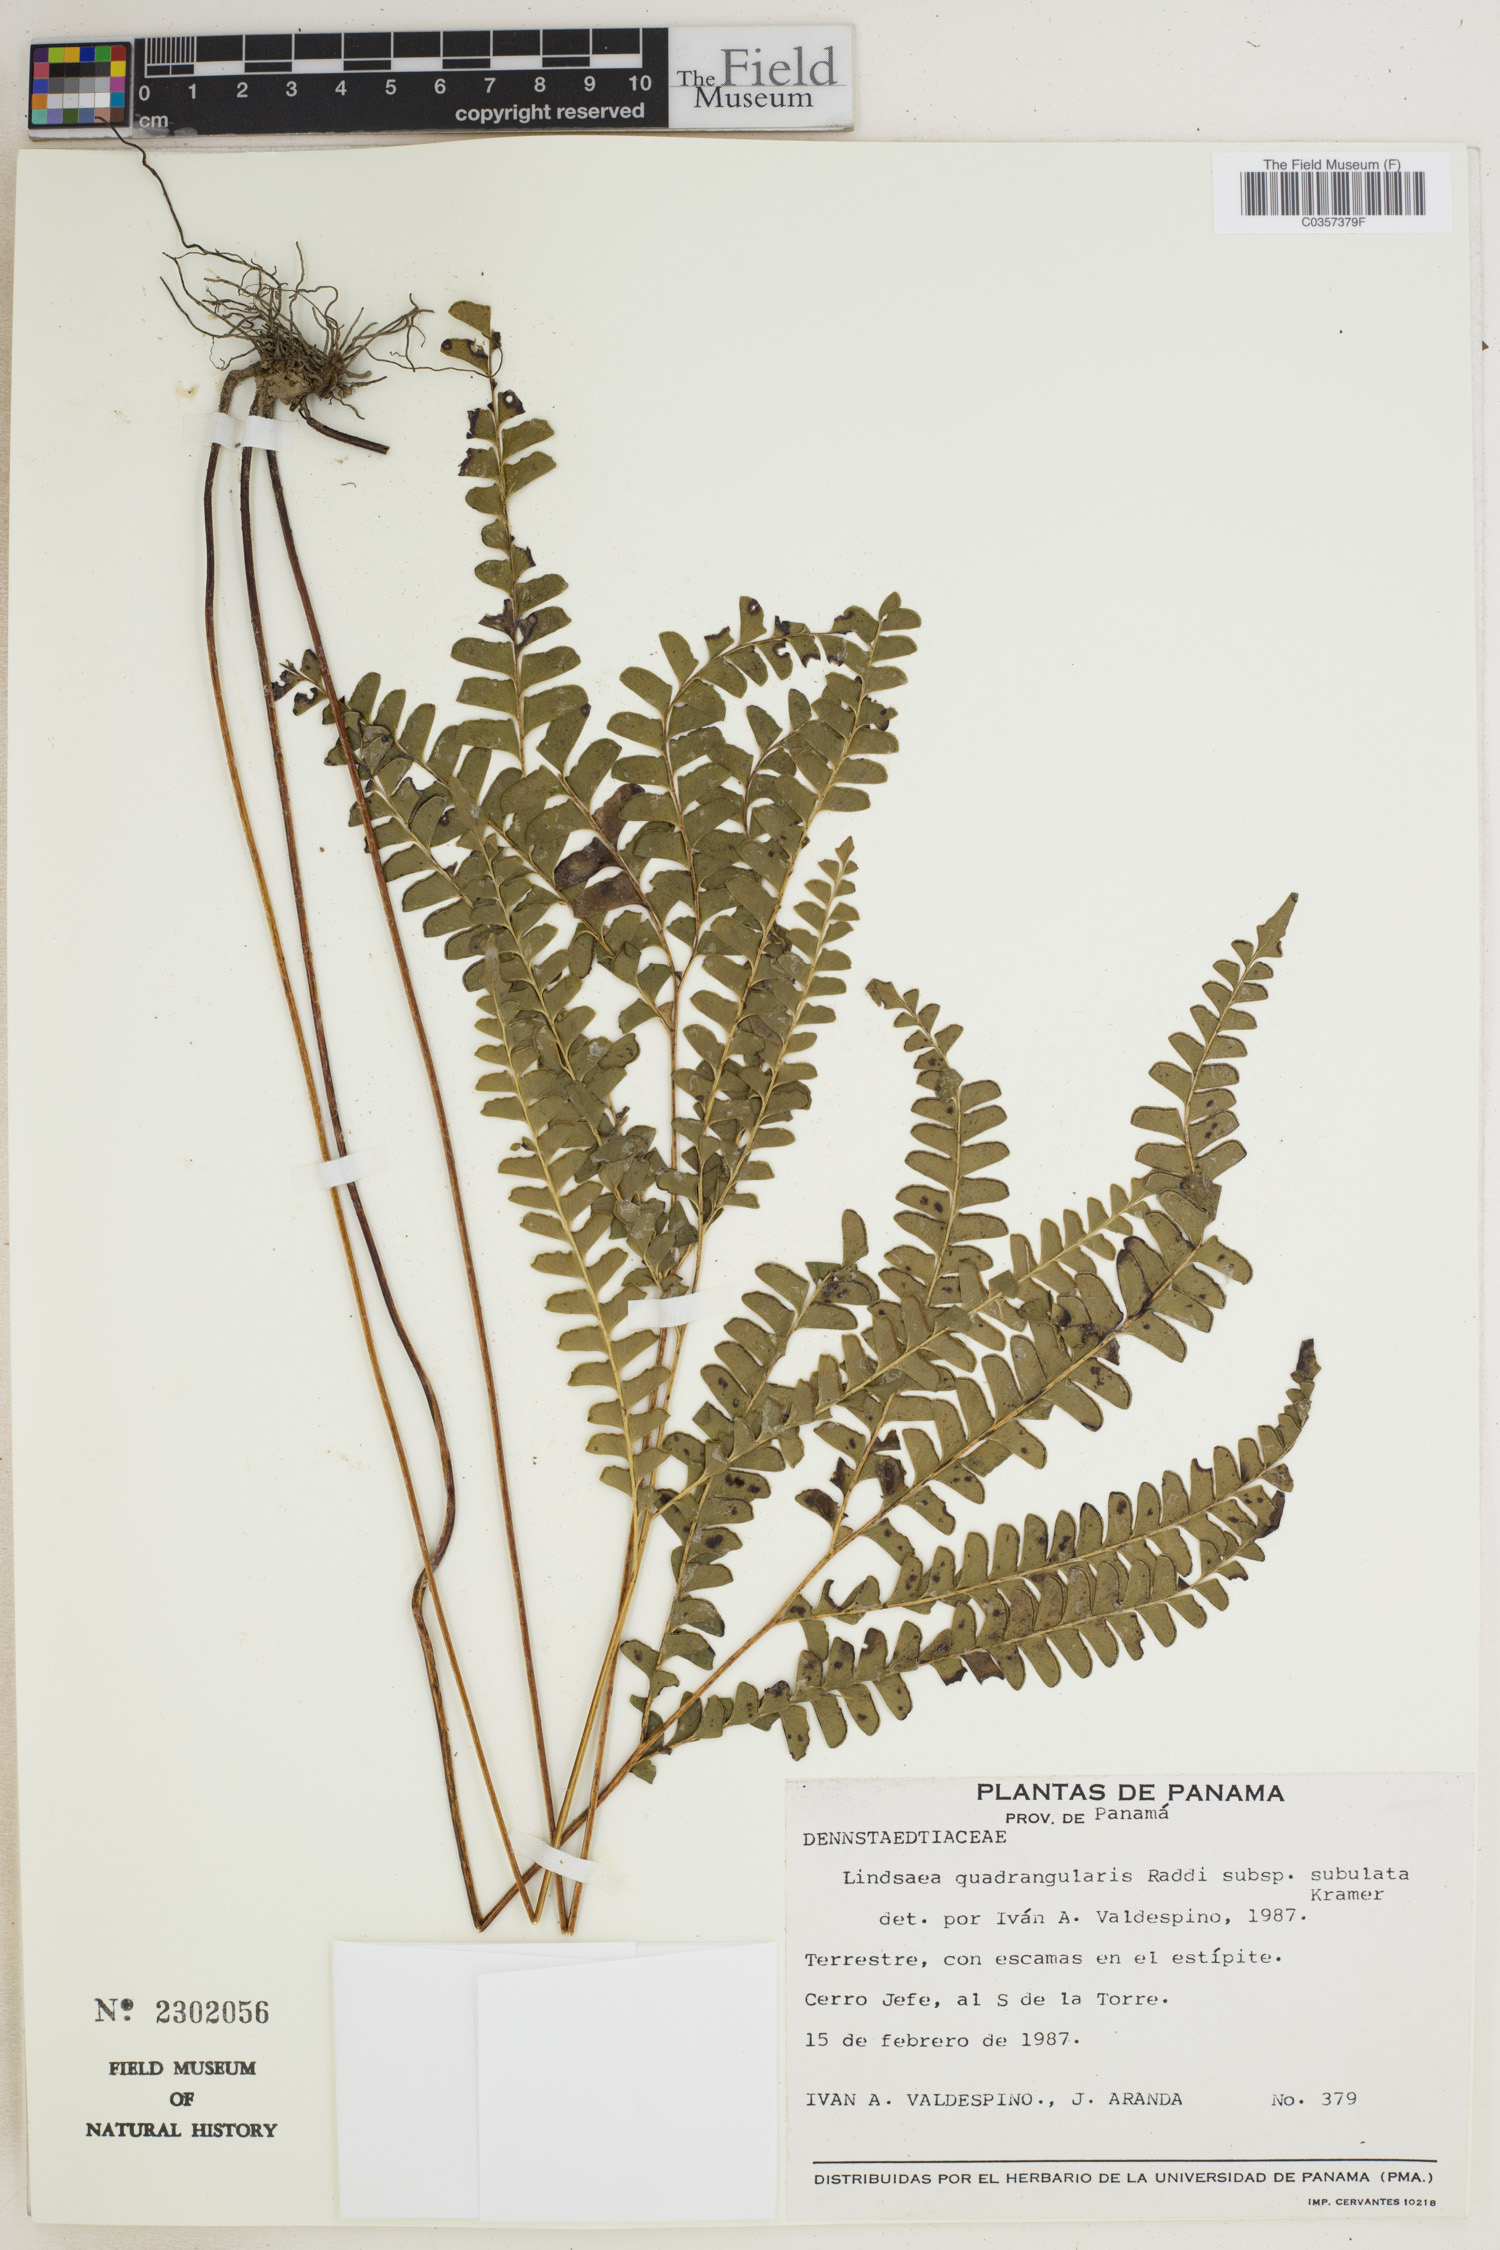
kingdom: Plantae
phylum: Tracheophyta
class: Polypodiopsida
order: Polypodiales
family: Lindsaeaceae
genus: Lindsaea
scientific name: Lindsaea subalata
